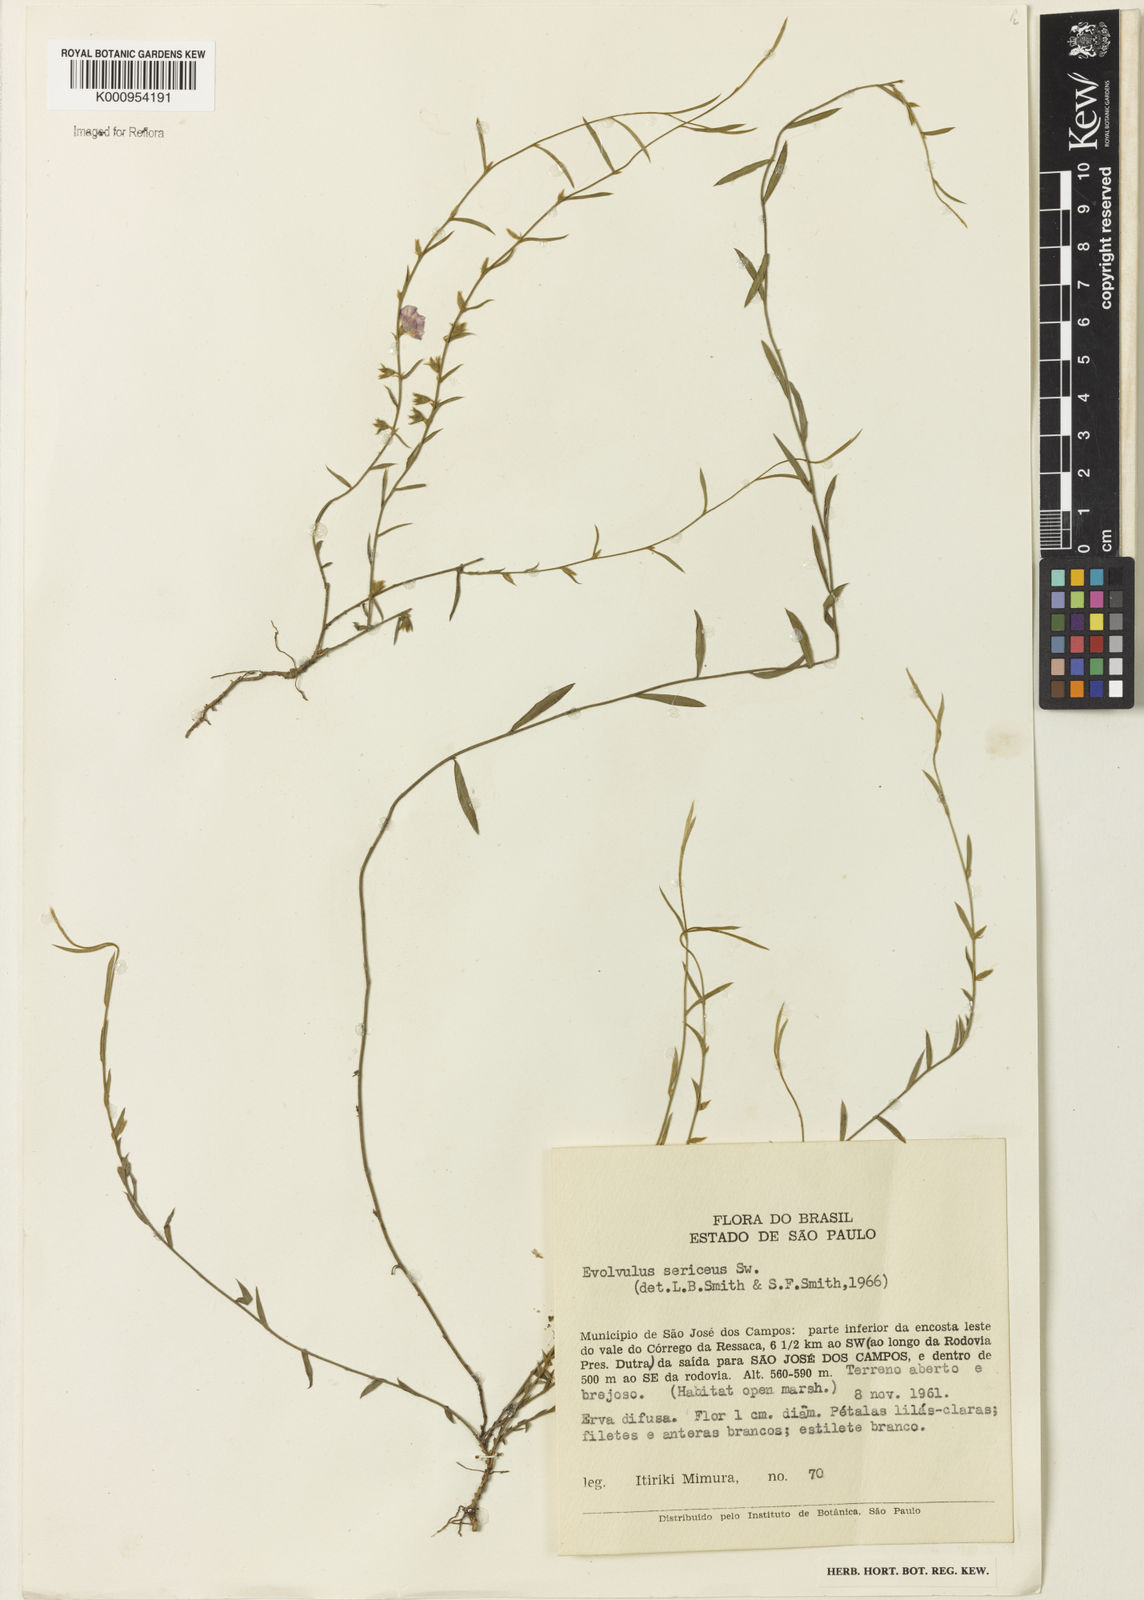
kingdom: Plantae
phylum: Tracheophyta
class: Magnoliopsida
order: Solanales
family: Convolvulaceae
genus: Evolvulus
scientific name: Evolvulus
